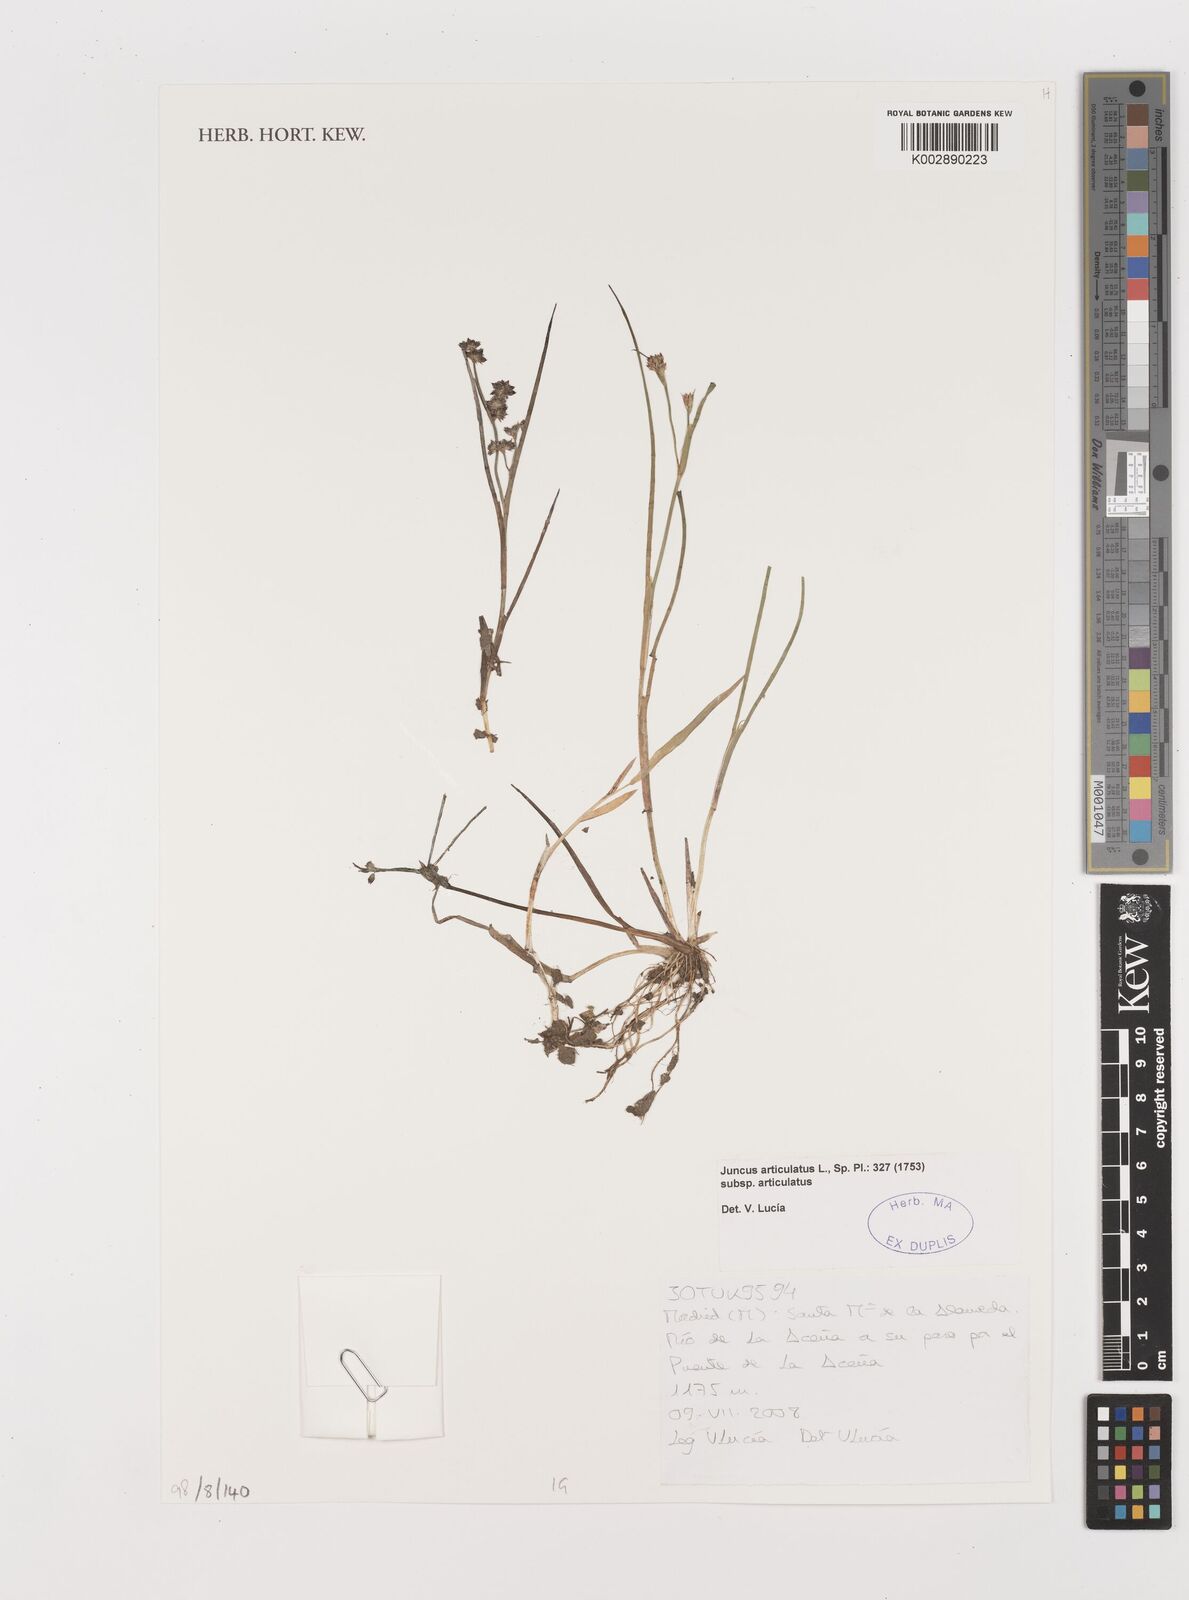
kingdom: Plantae
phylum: Tracheophyta
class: Liliopsida
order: Poales
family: Juncaceae
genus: Juncus
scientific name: Juncus articulatus
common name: Jointed rush
